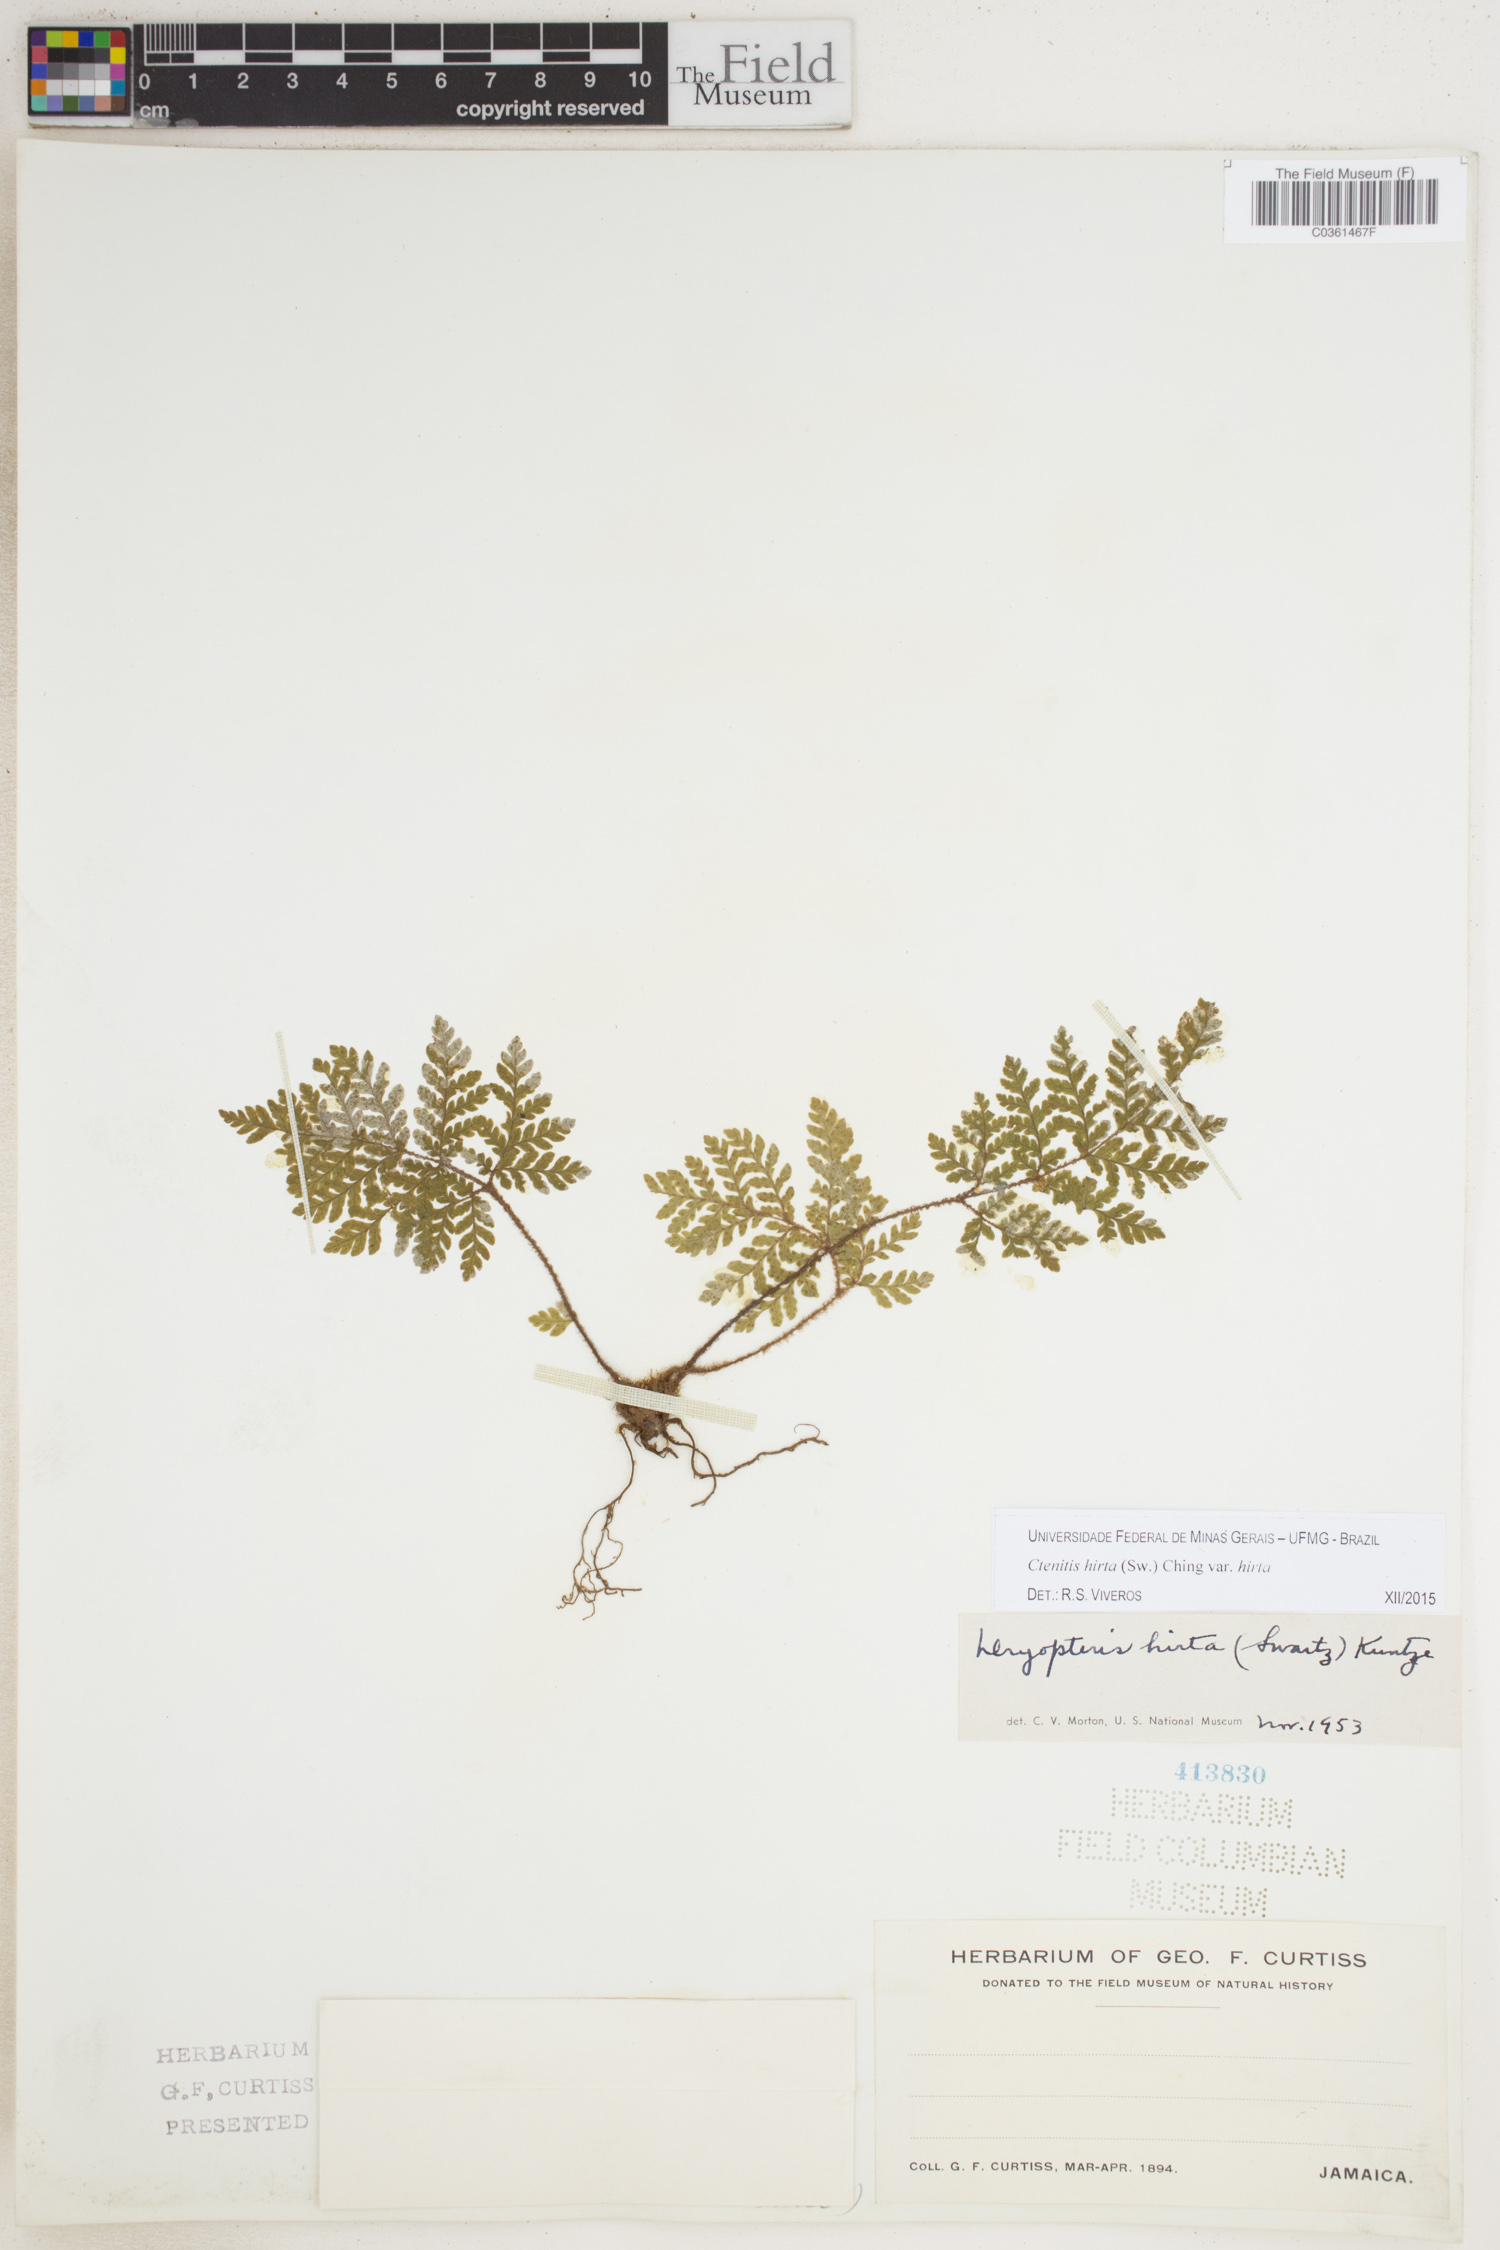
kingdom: Plantae
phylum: Tracheophyta
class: Polypodiopsida
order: Polypodiales
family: Dryopteridaceae
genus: Ctenitis
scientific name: Ctenitis hirta
